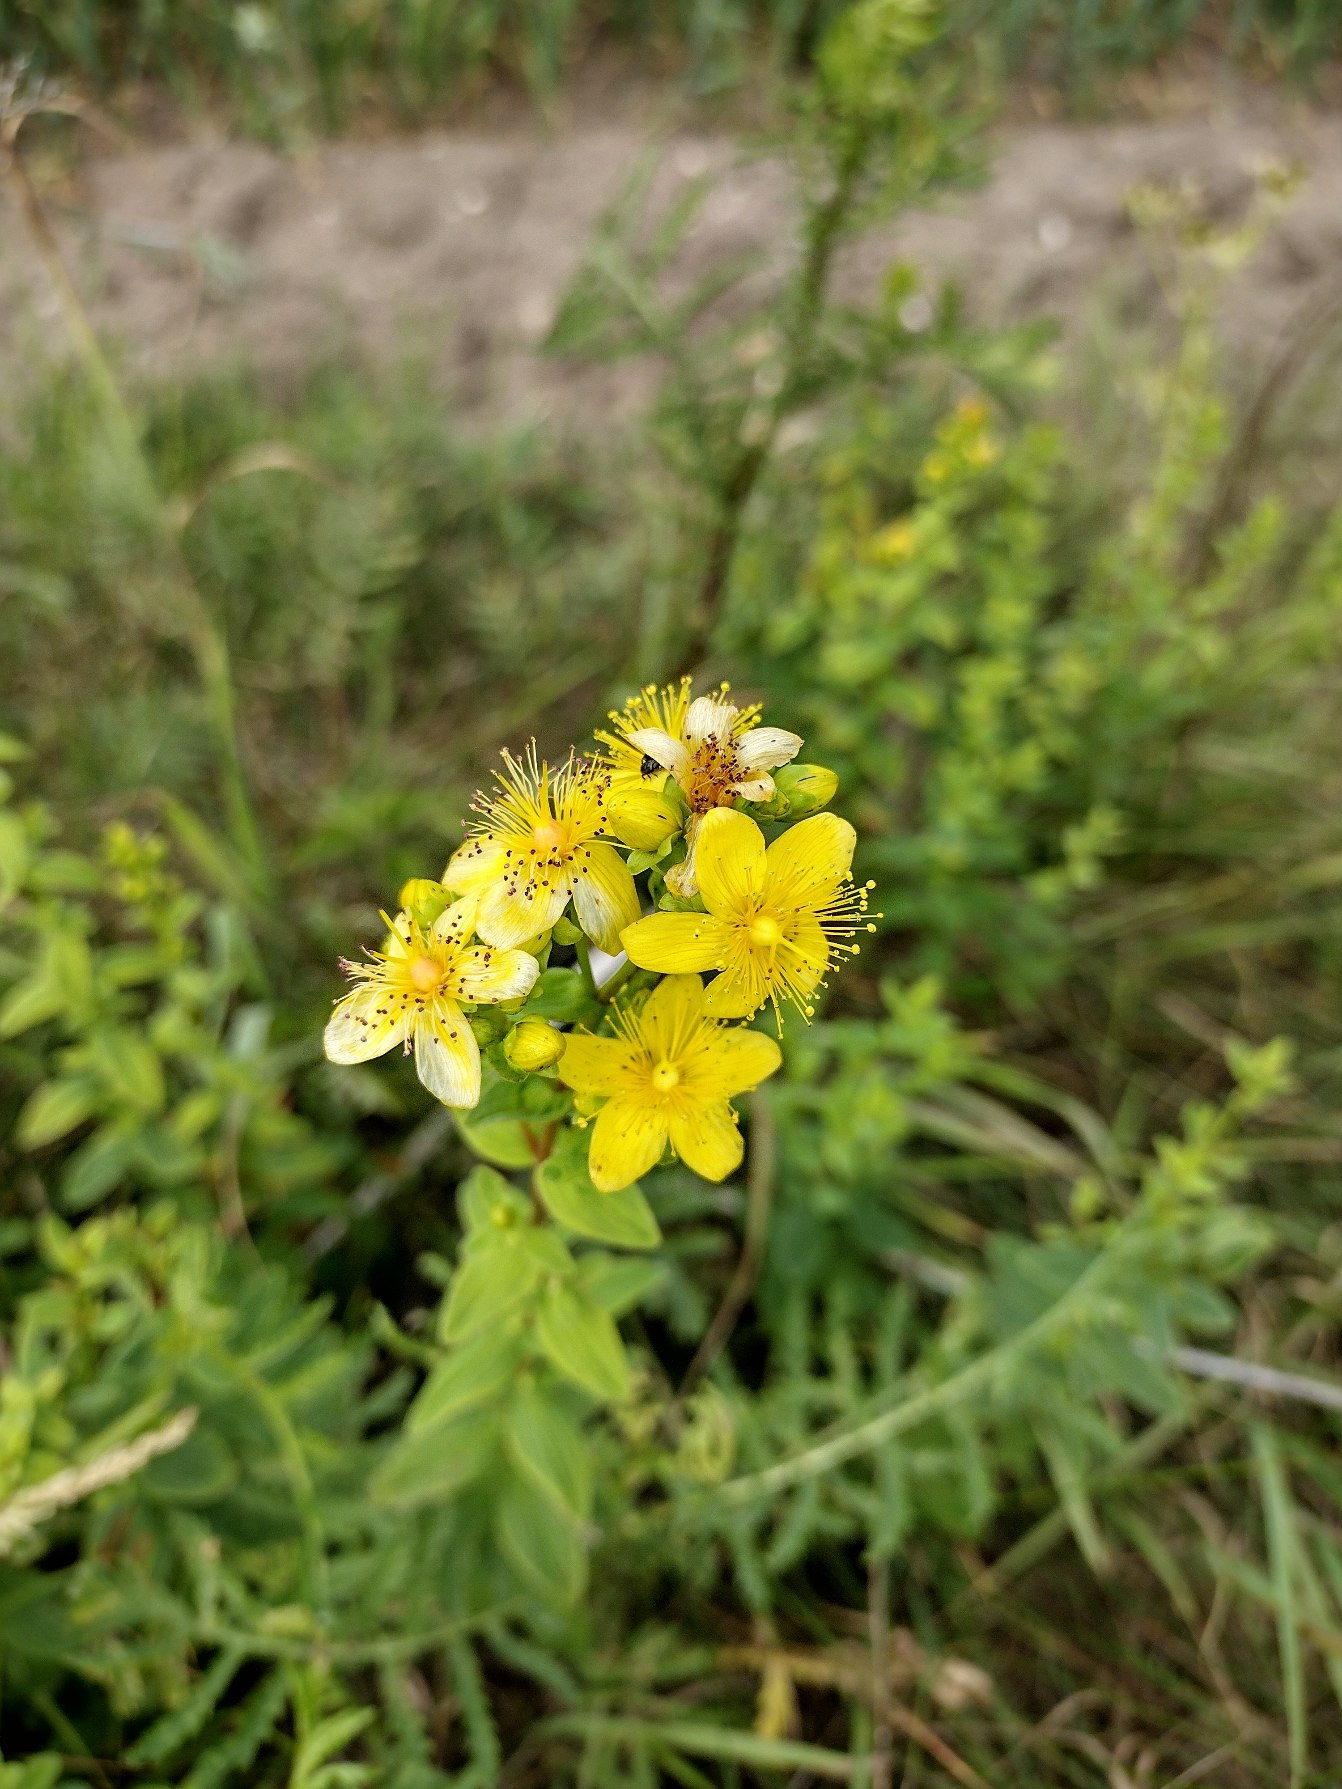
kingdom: Plantae
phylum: Tracheophyta
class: Magnoliopsida
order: Malpighiales
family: Hypericaceae
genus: Hypericum
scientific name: Hypericum maculatum
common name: Kantet perikon
